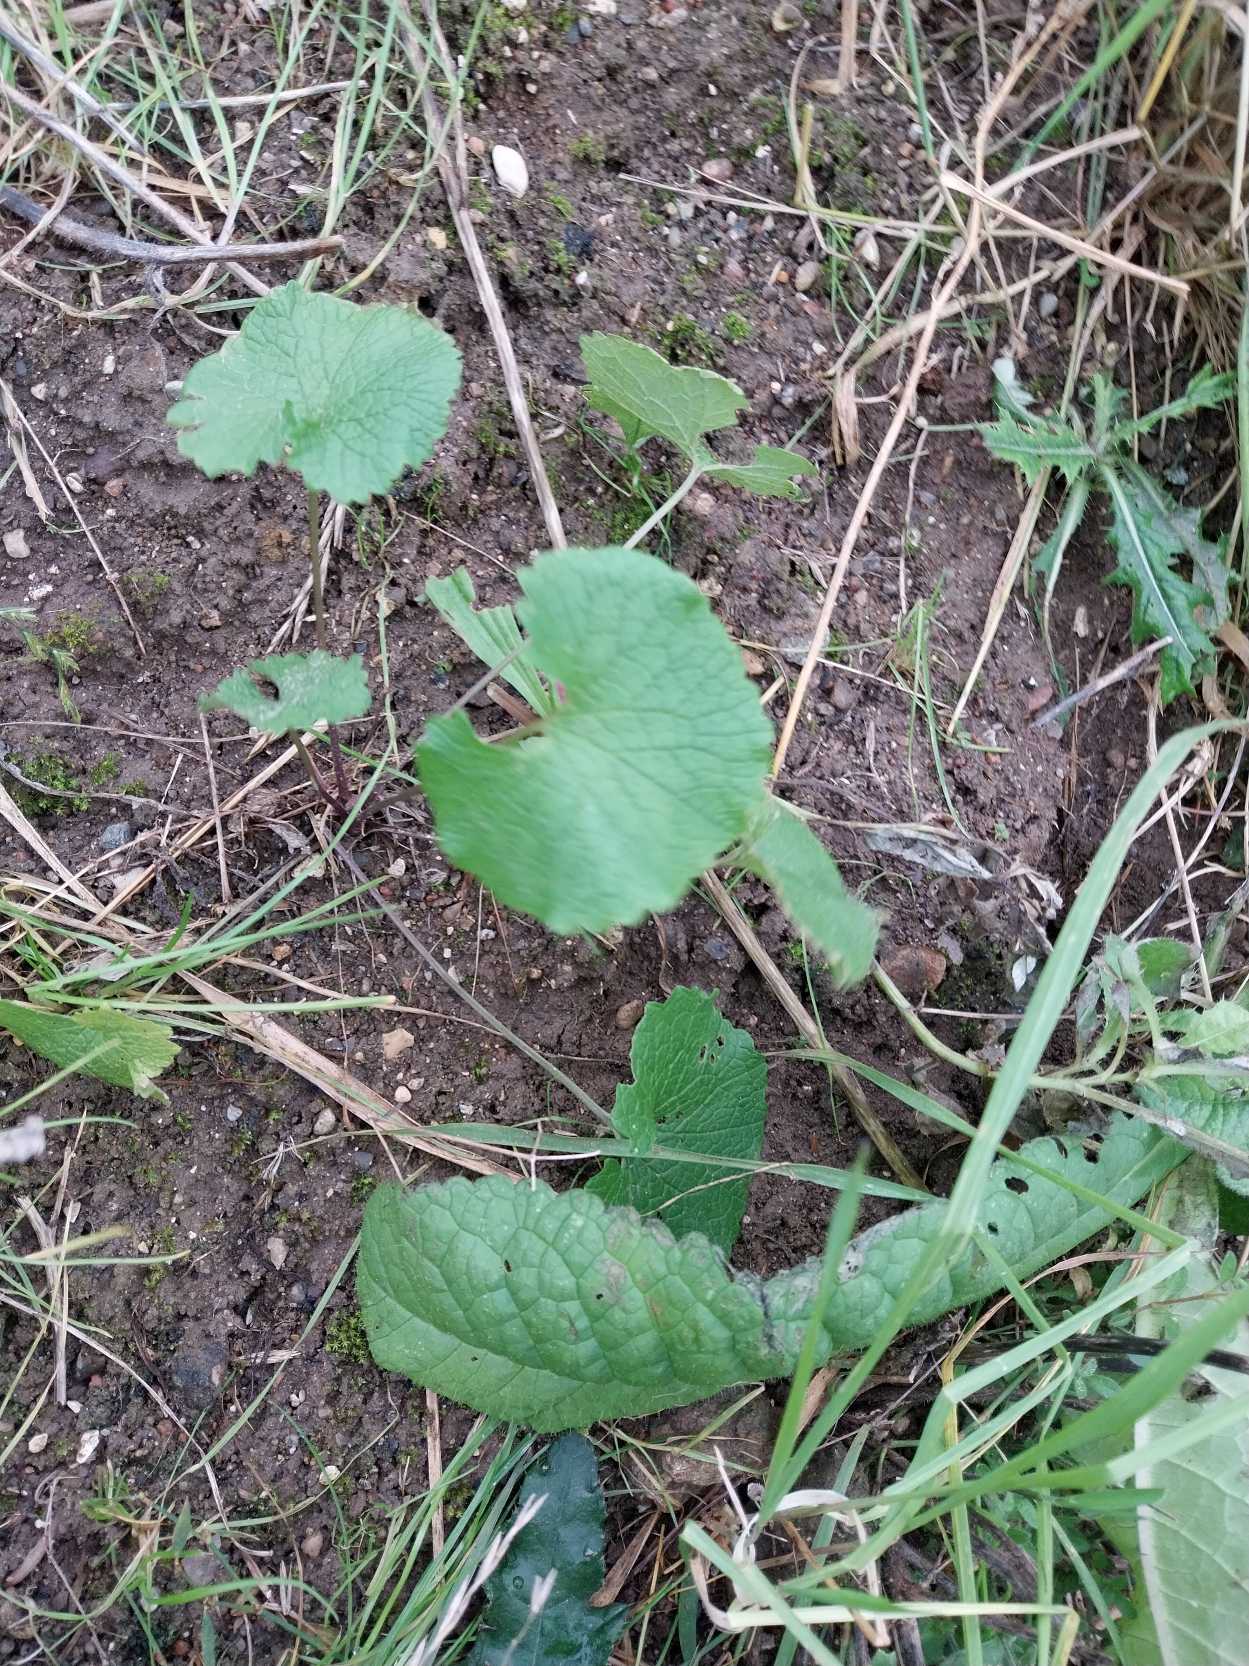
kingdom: Plantae
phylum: Tracheophyta
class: Magnoliopsida
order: Brassicales
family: Brassicaceae
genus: Alliaria
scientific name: Alliaria petiolata
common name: Løgkarse
